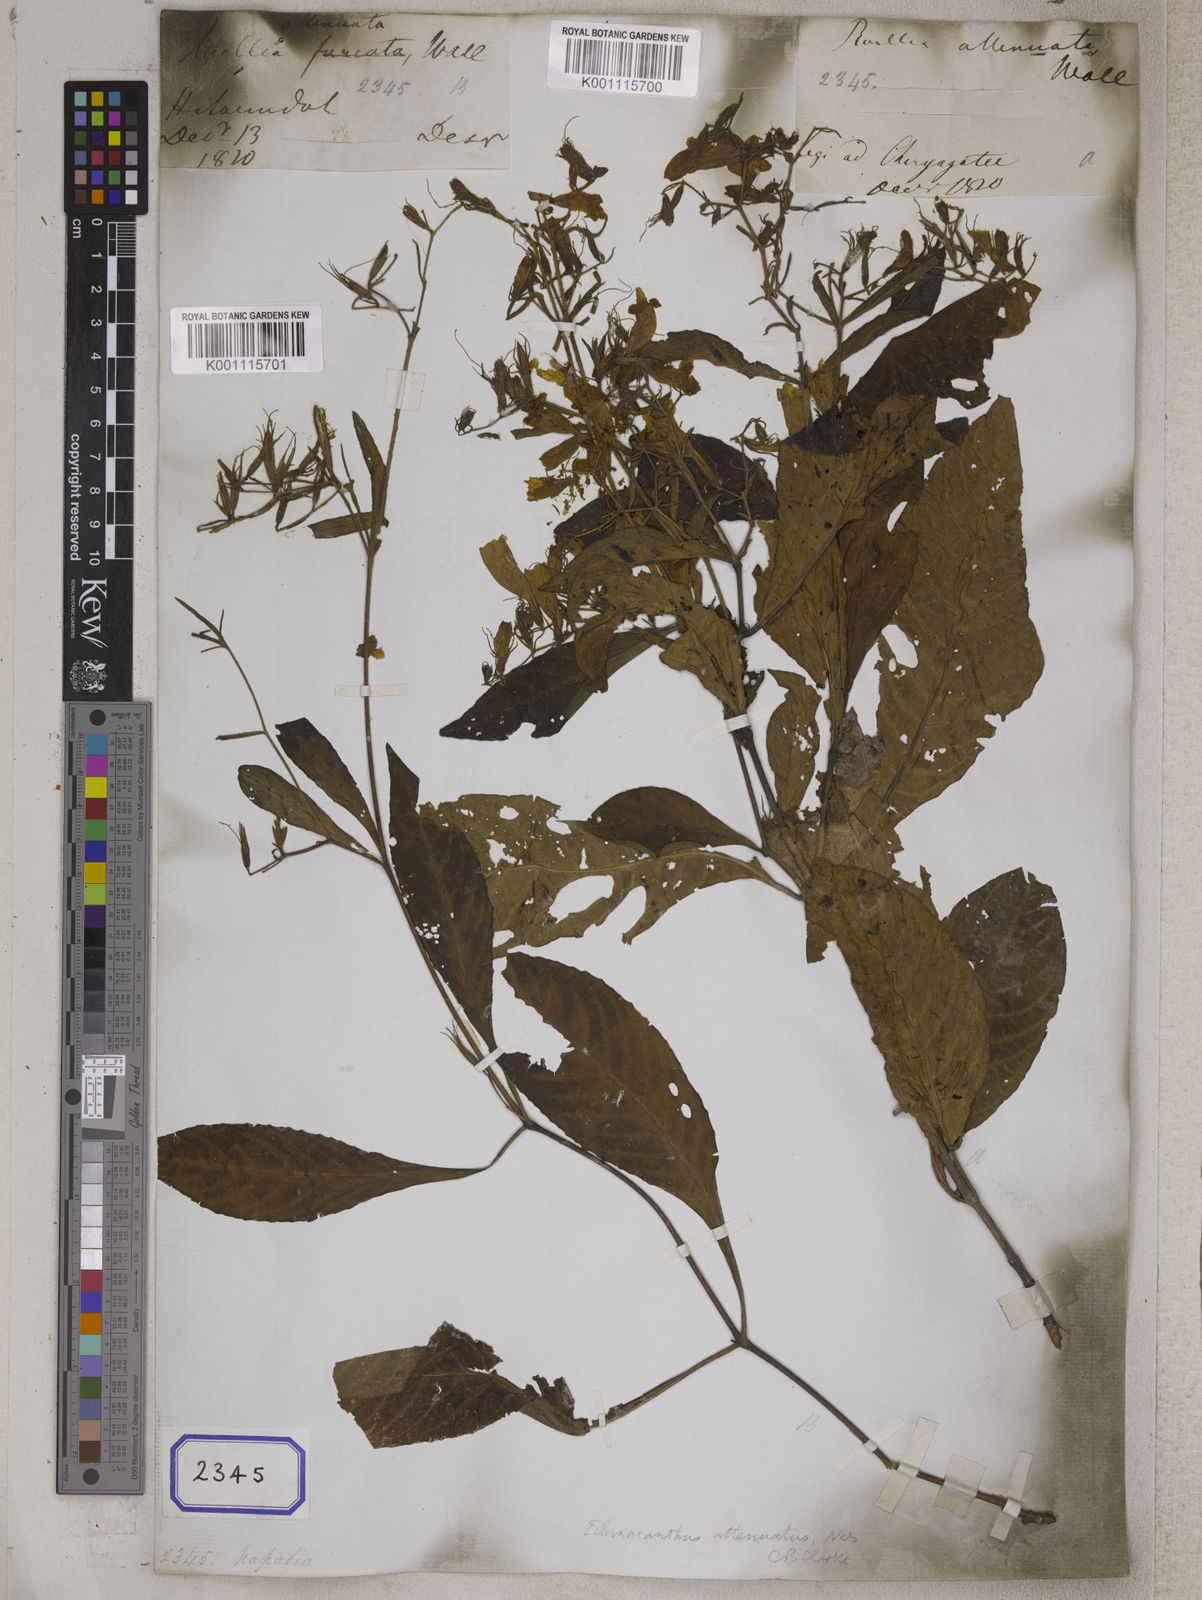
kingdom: Plantae
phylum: Tracheophyta
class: Magnoliopsida
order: Lamiales
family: Acanthaceae
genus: Ruellia
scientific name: Ruellia
